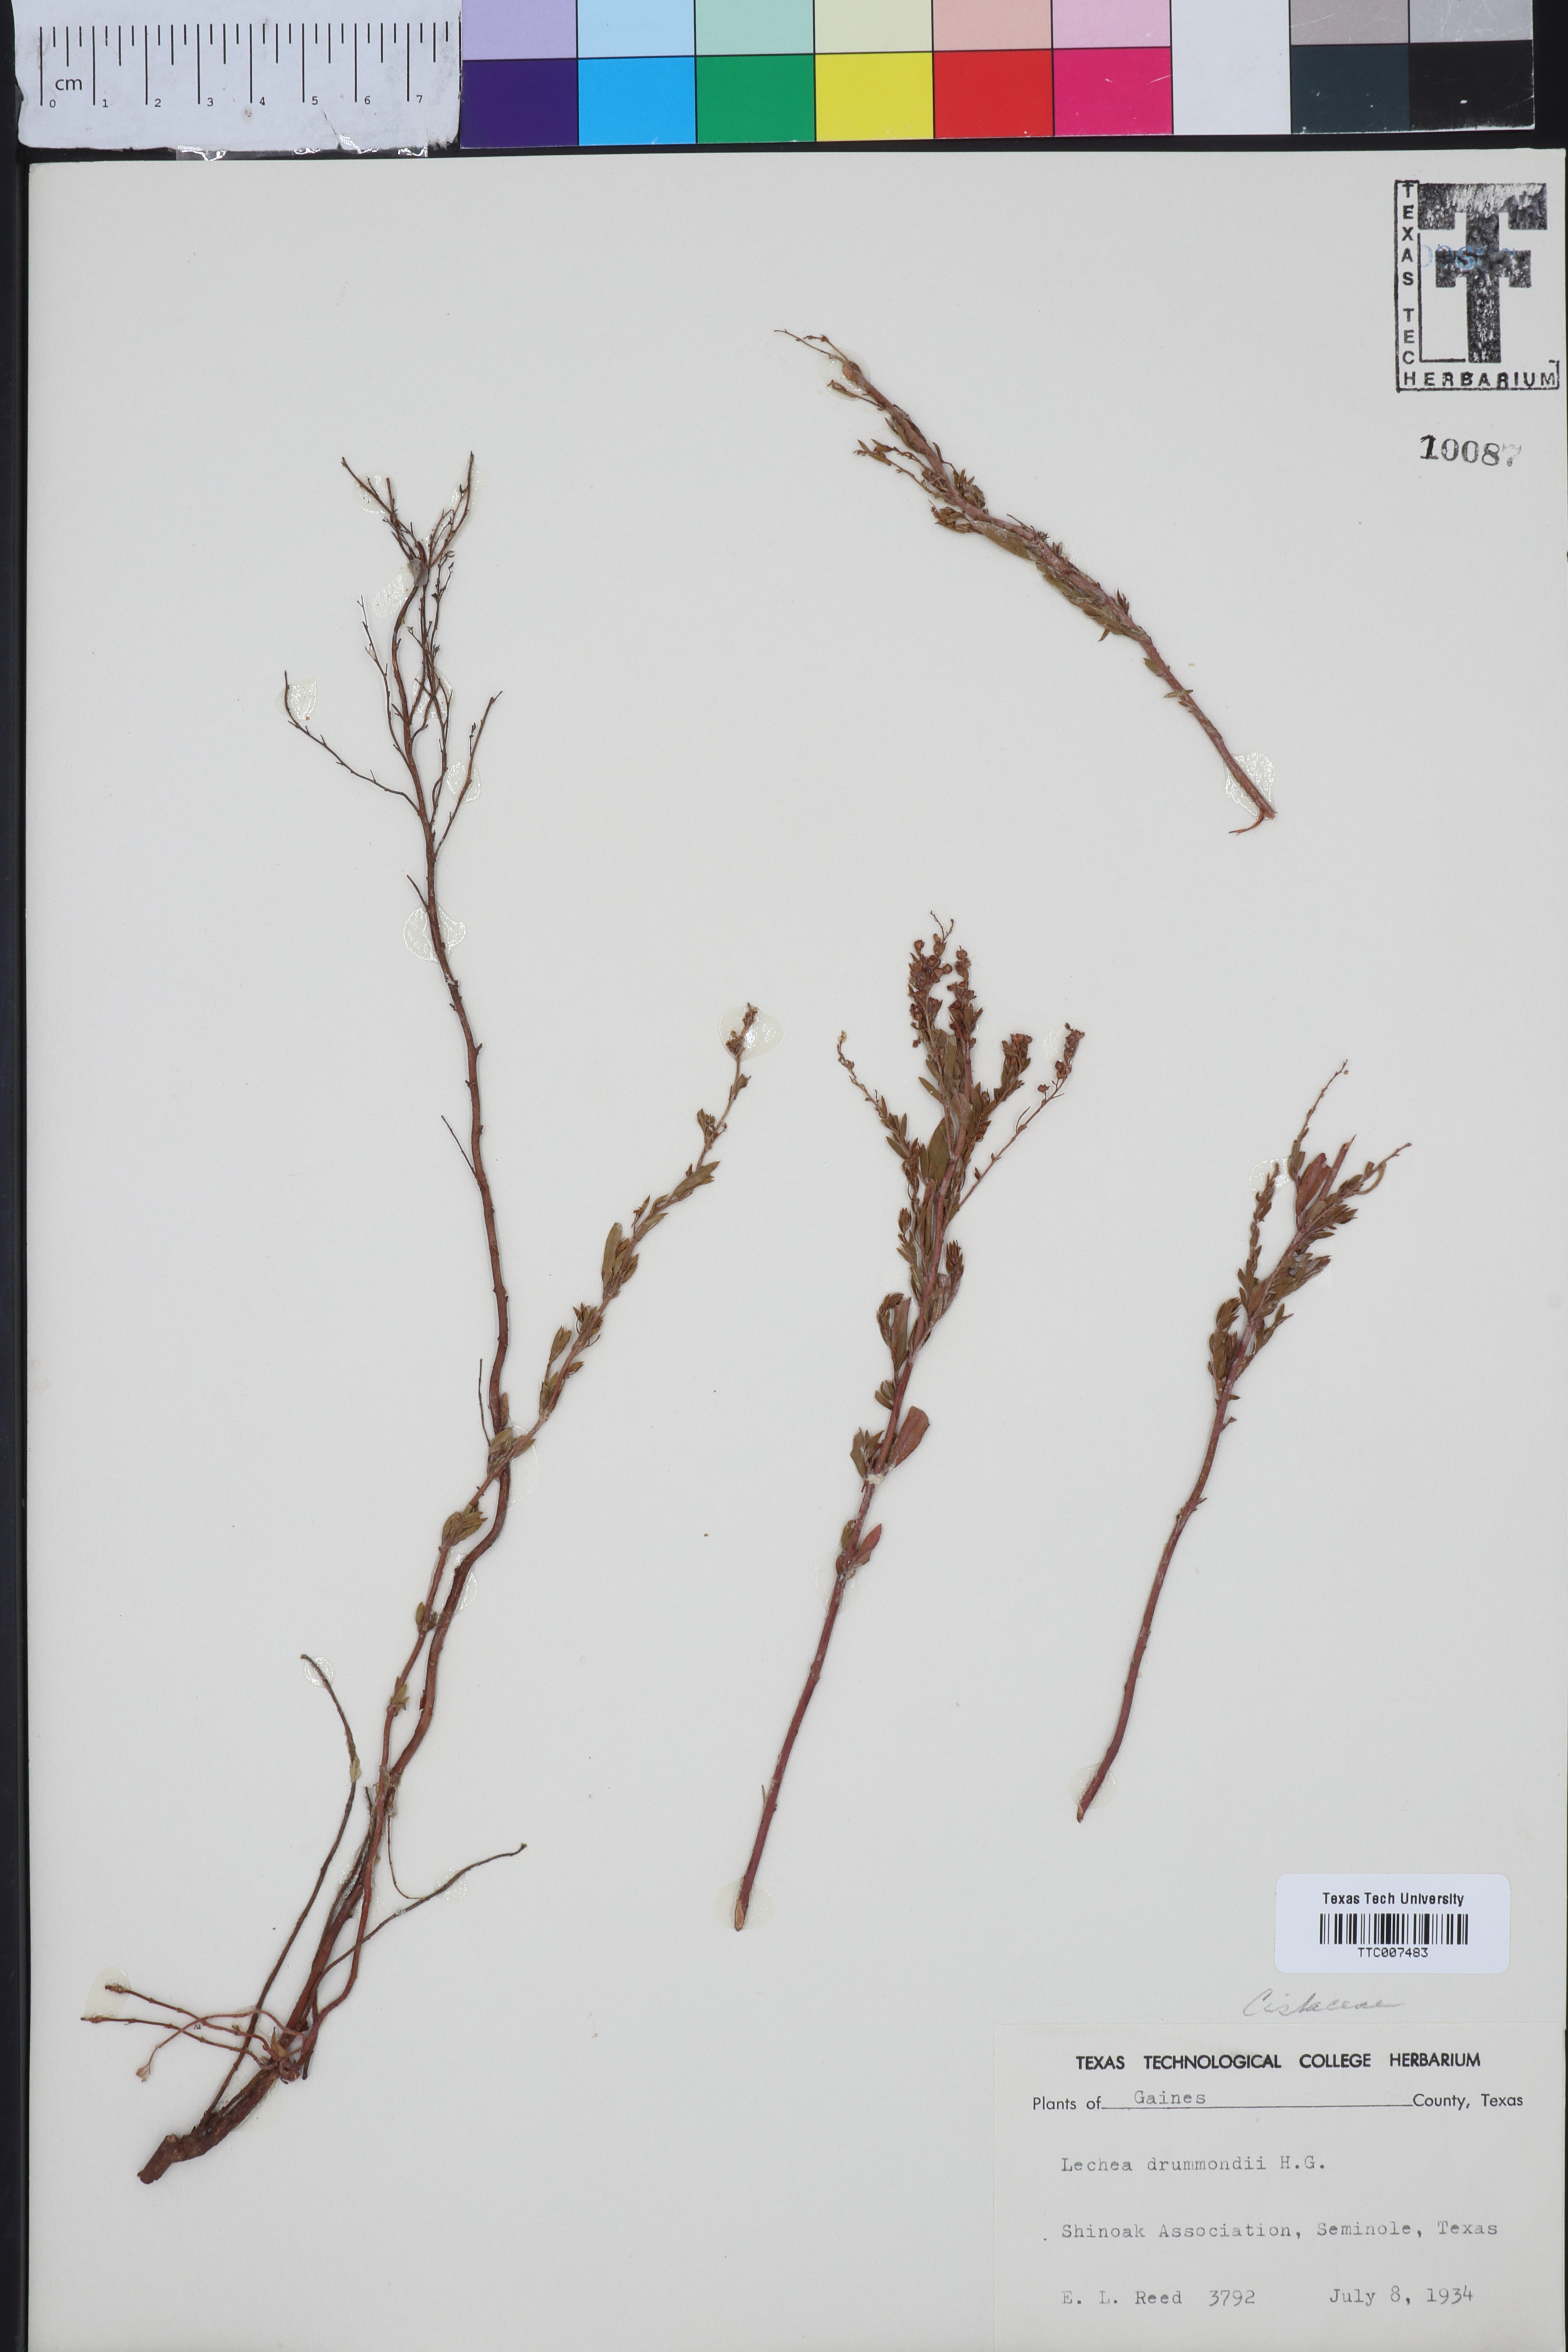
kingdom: Plantae
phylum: Tracheophyta
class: Magnoliopsida
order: Malvales
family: Cistaceae
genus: Lechea
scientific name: Lechea drummondii
